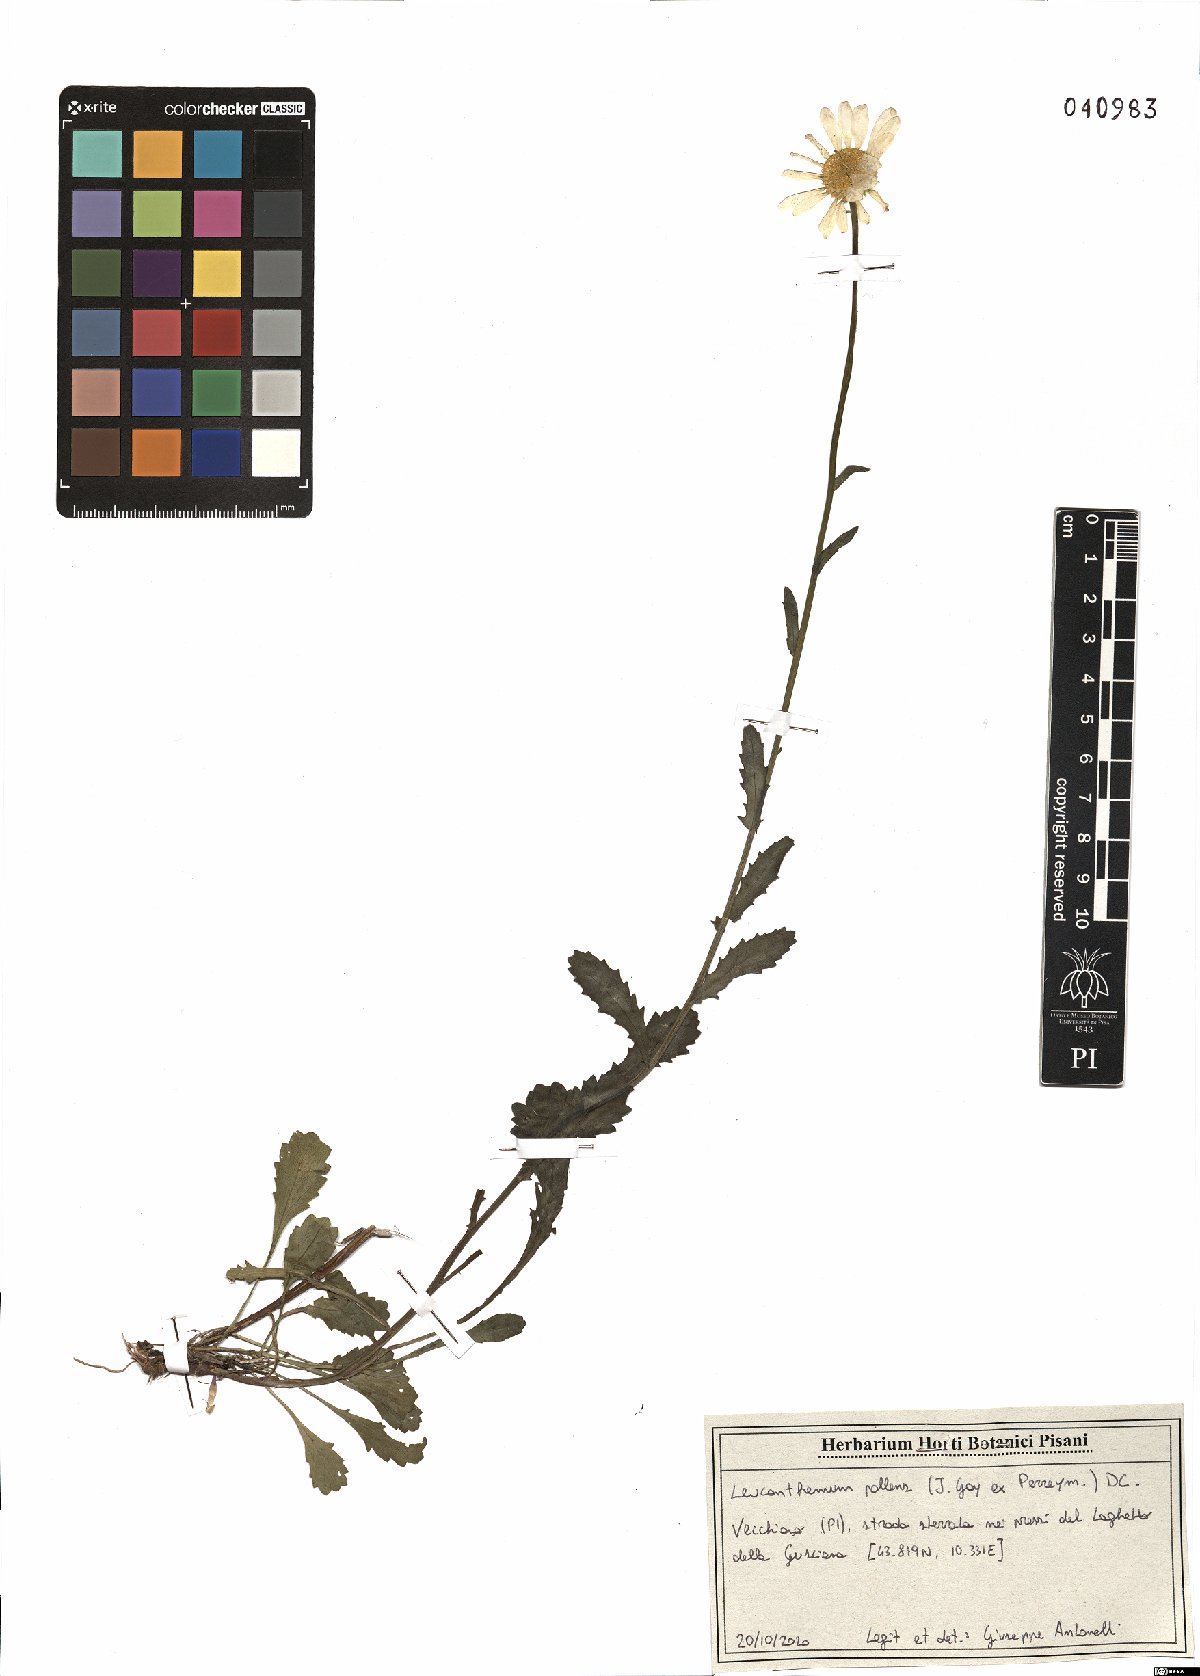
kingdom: Plantae
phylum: Tracheophyta
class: Magnoliopsida
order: Asterales
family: Asteraceae
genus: Leucanthemum
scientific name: Leucanthemum pallens
